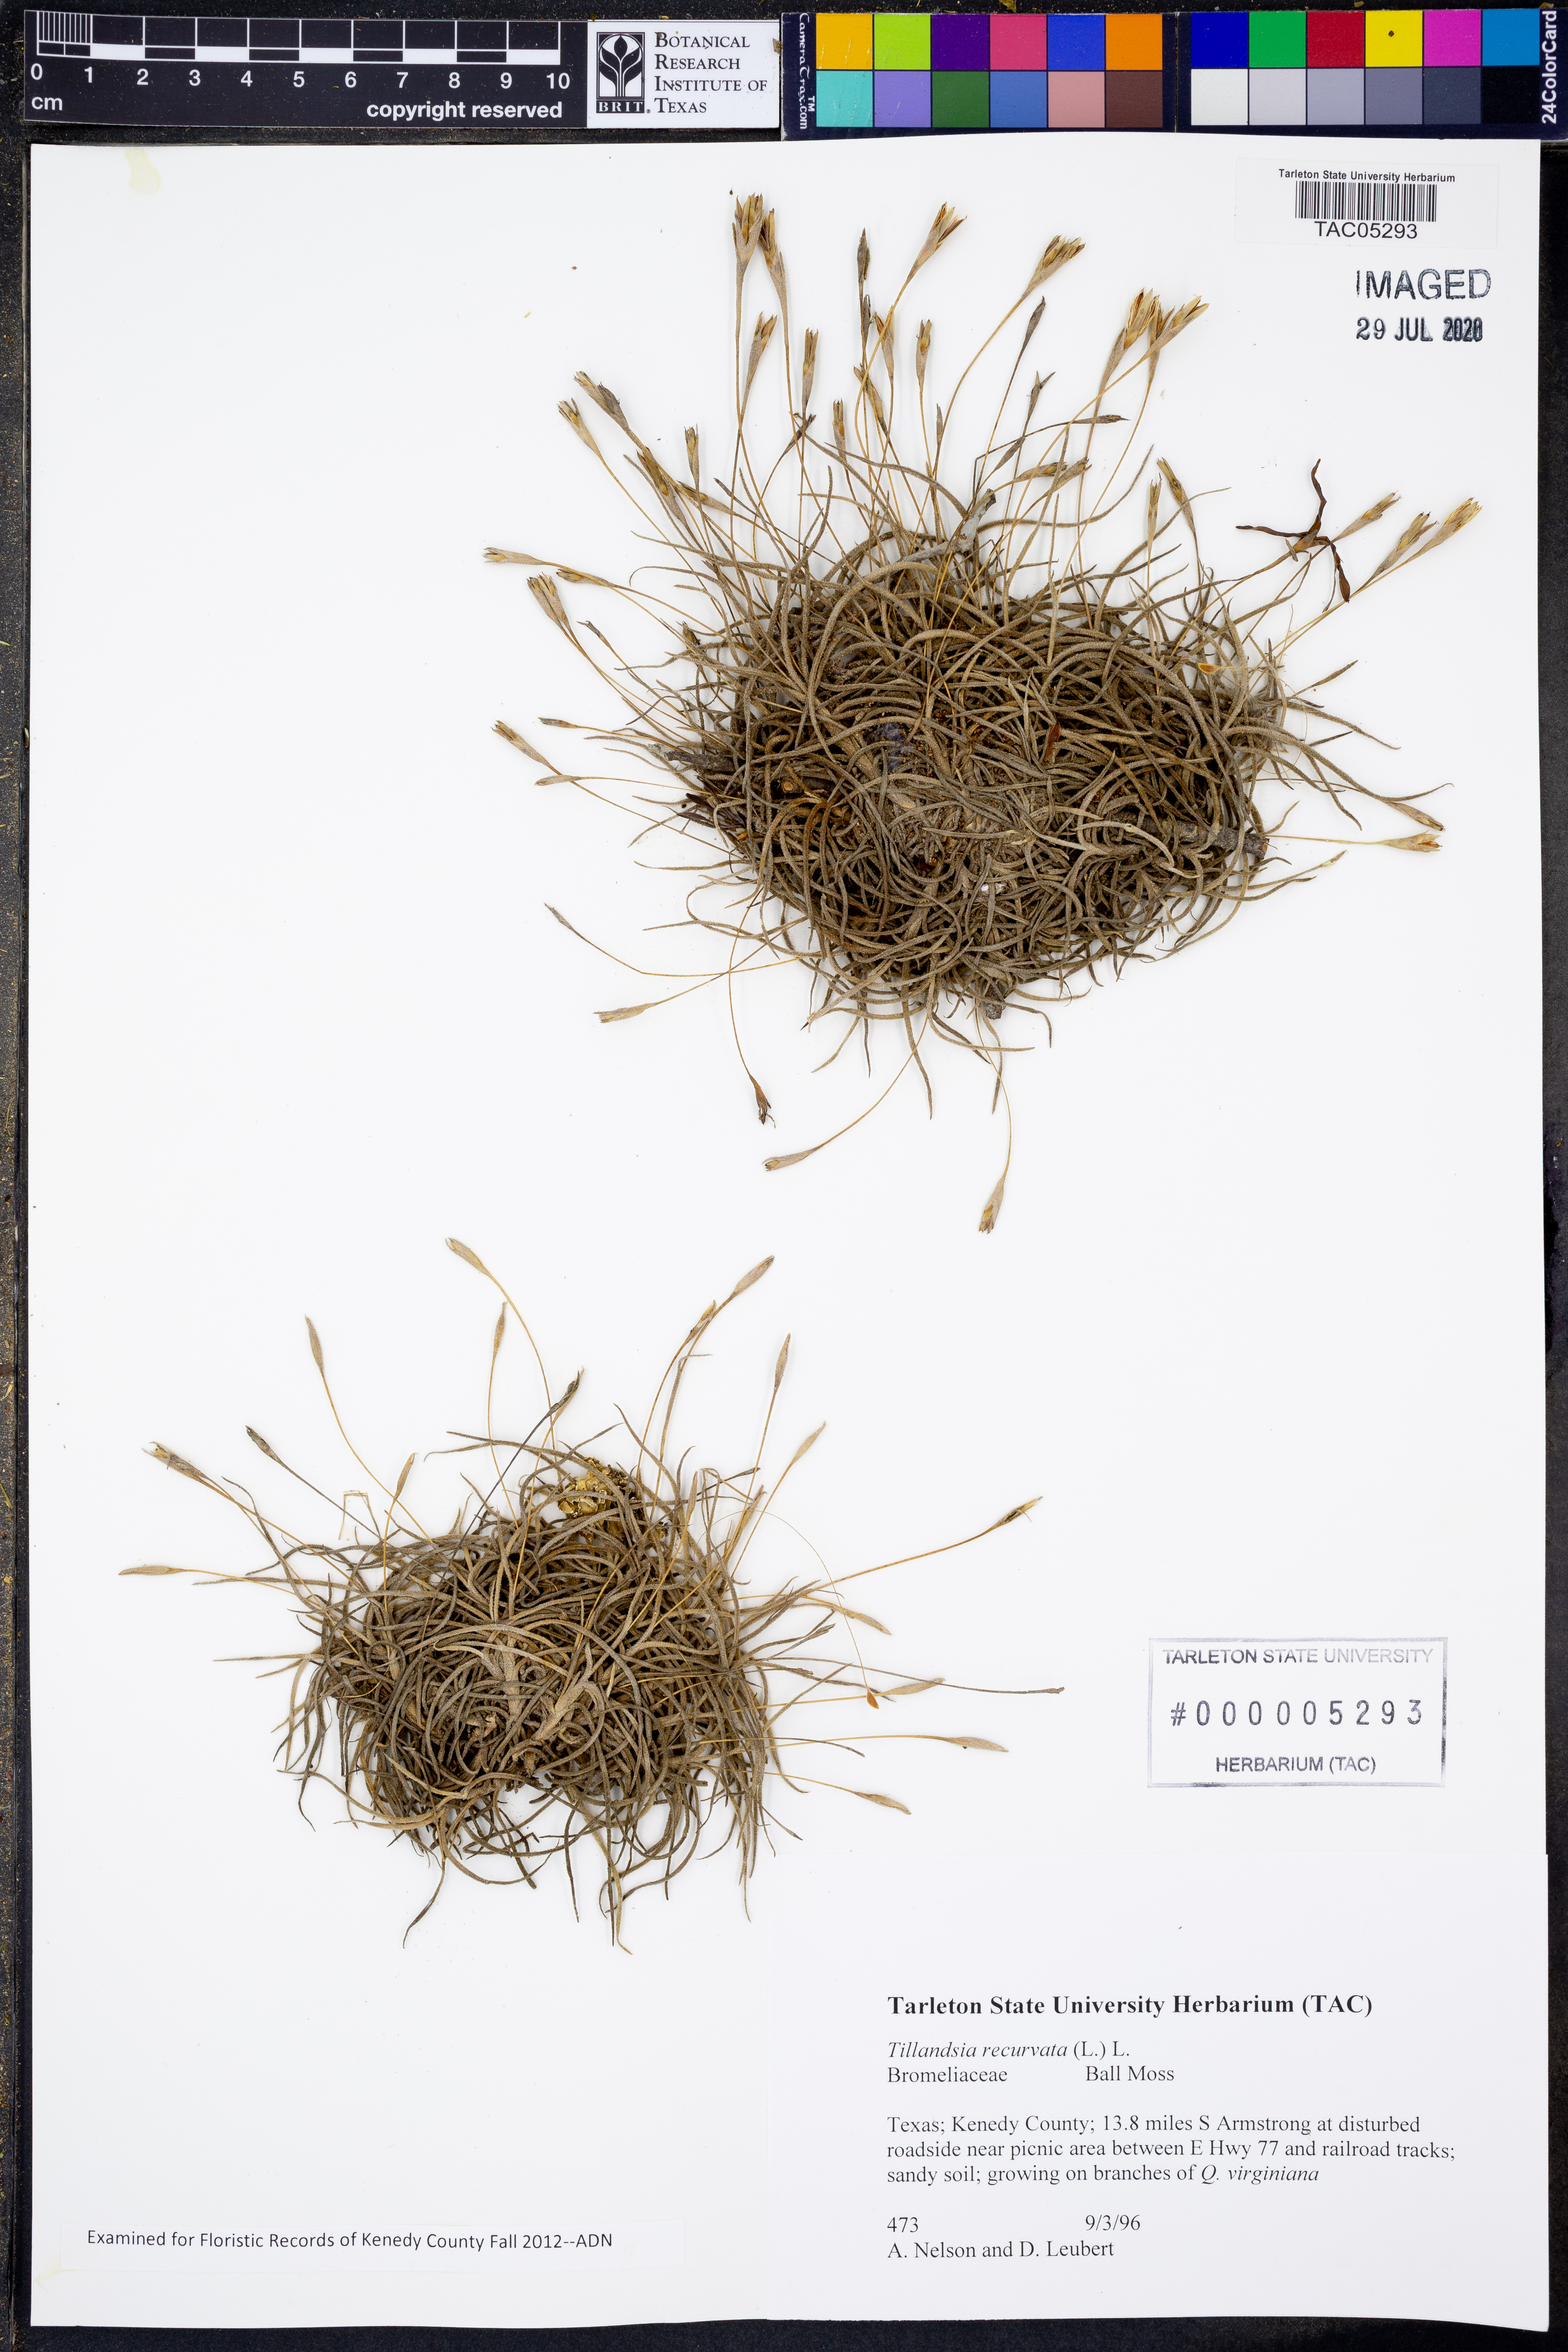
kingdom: Plantae
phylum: Tracheophyta
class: Liliopsida
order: Poales
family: Bromeliaceae
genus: Tillandsia
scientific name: Tillandsia recurvata
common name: Small ballmoss
